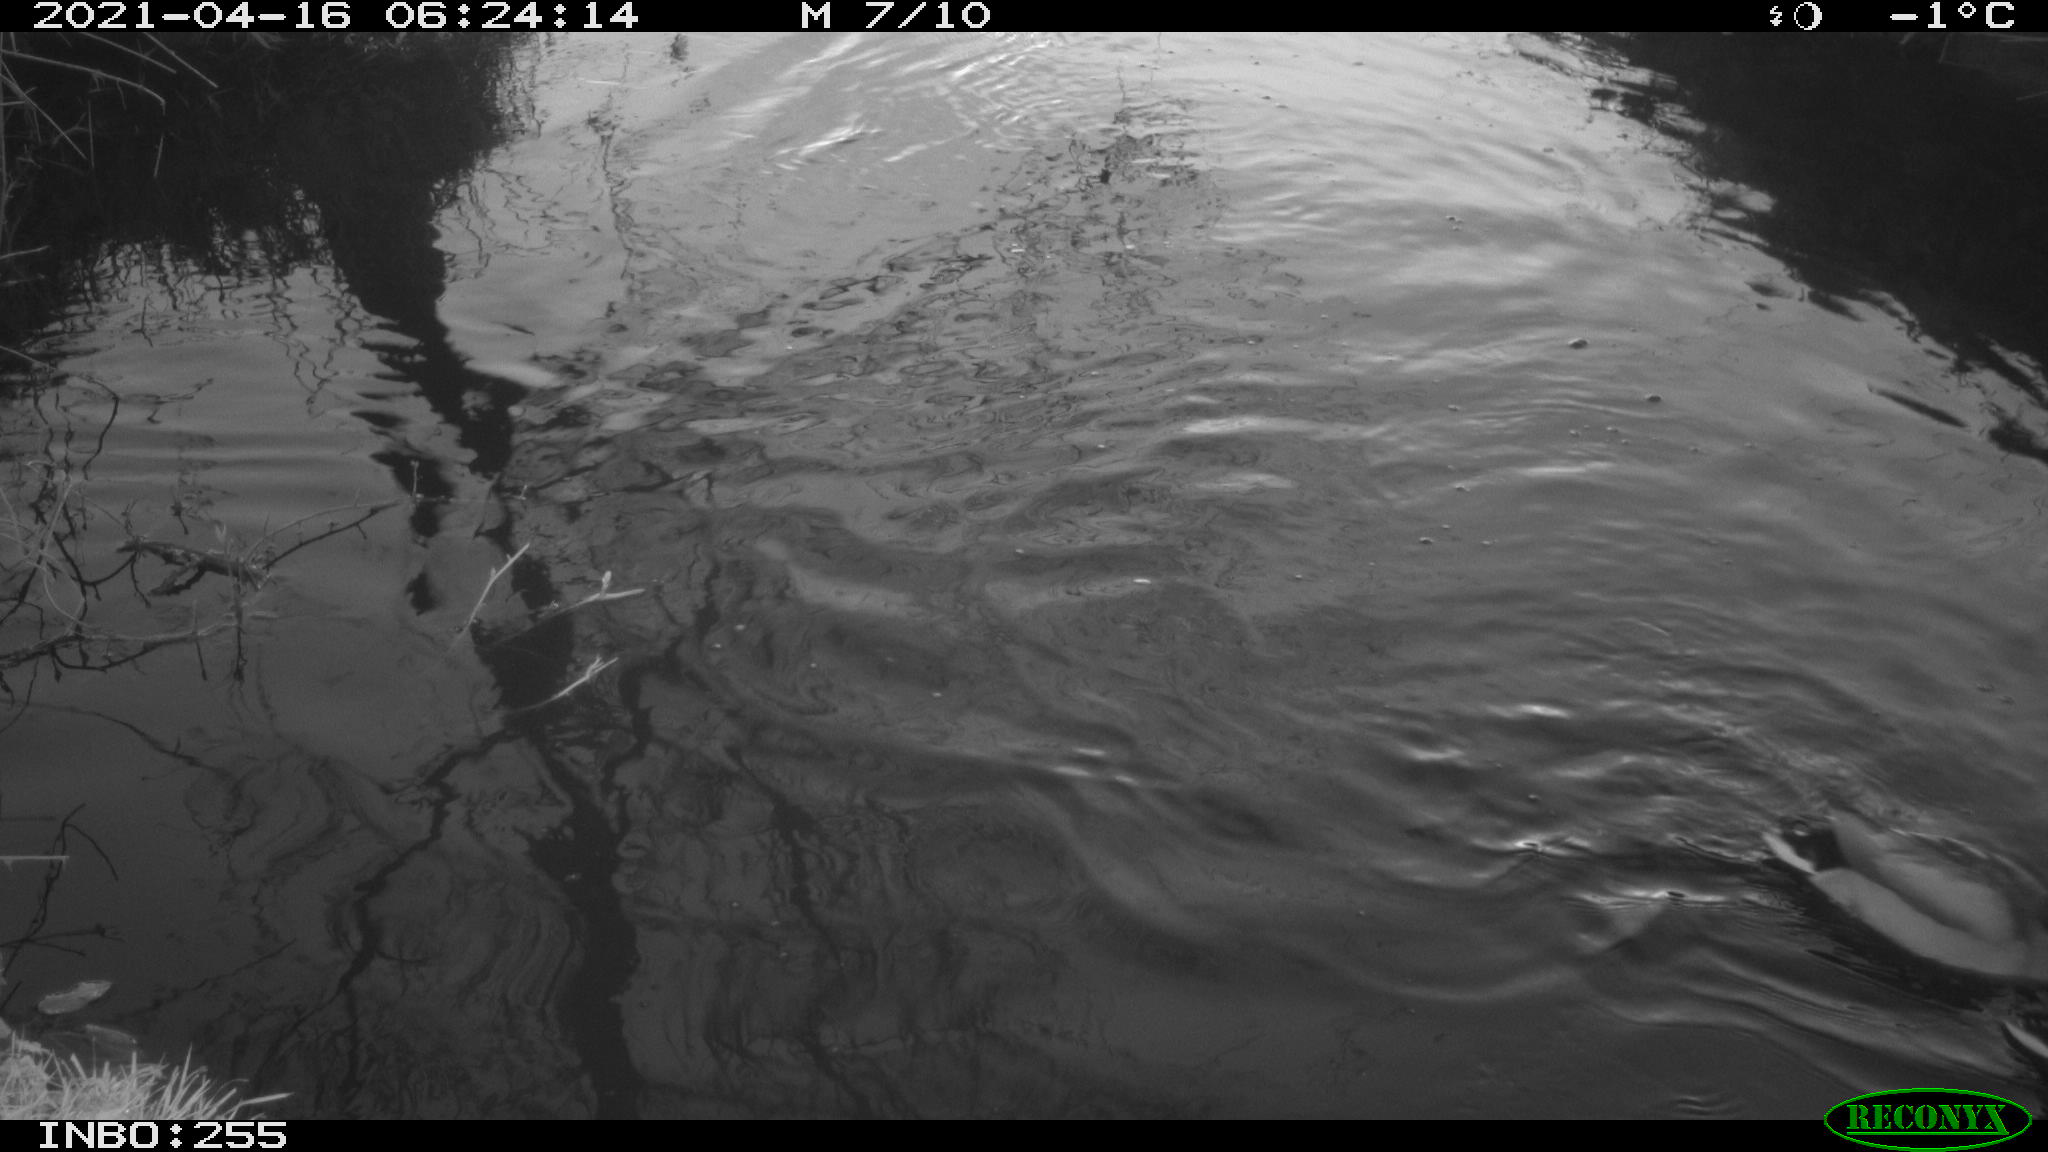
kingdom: Animalia
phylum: Chordata
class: Aves
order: Anseriformes
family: Anatidae
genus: Anas
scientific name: Anas platyrhynchos
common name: Mallard
